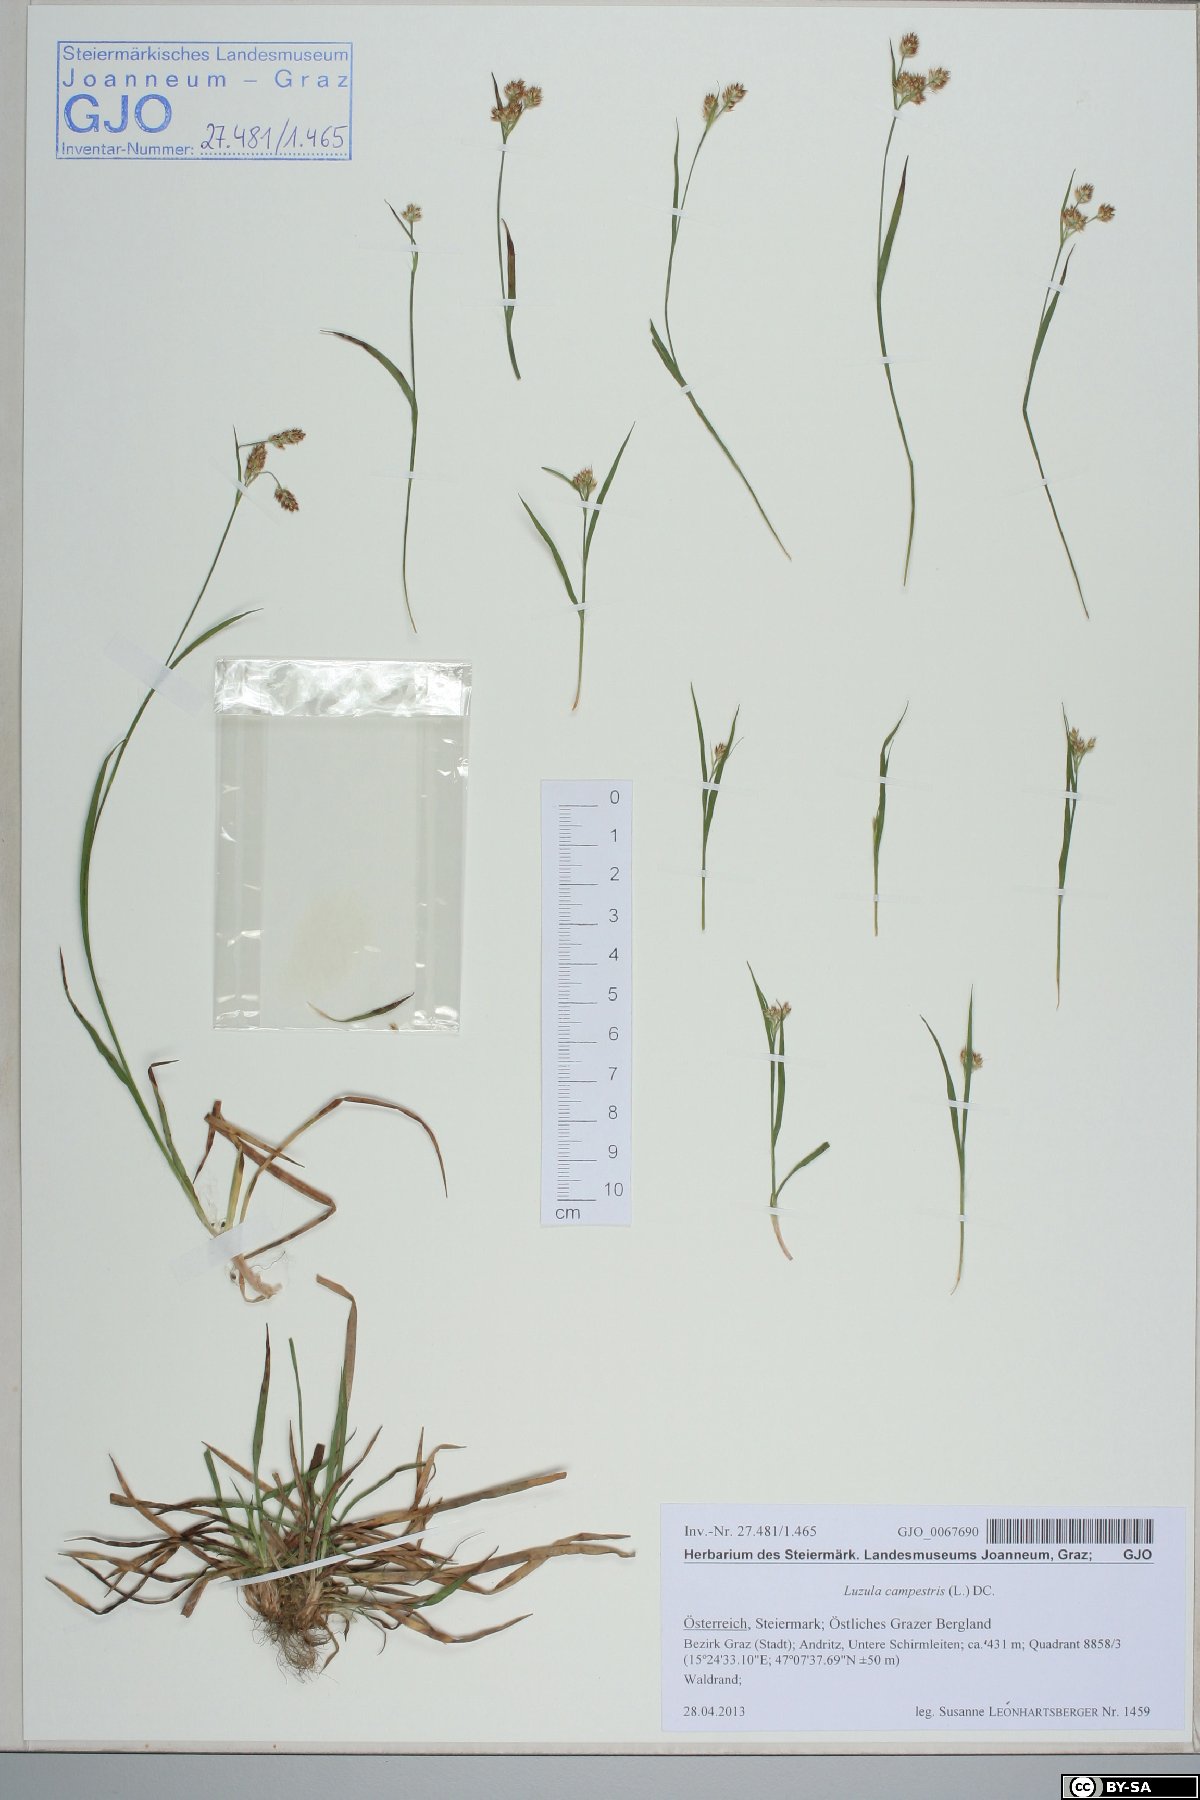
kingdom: Plantae
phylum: Tracheophyta
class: Liliopsida
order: Poales
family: Juncaceae
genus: Luzula
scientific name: Luzula campestris
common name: Field wood-rush
